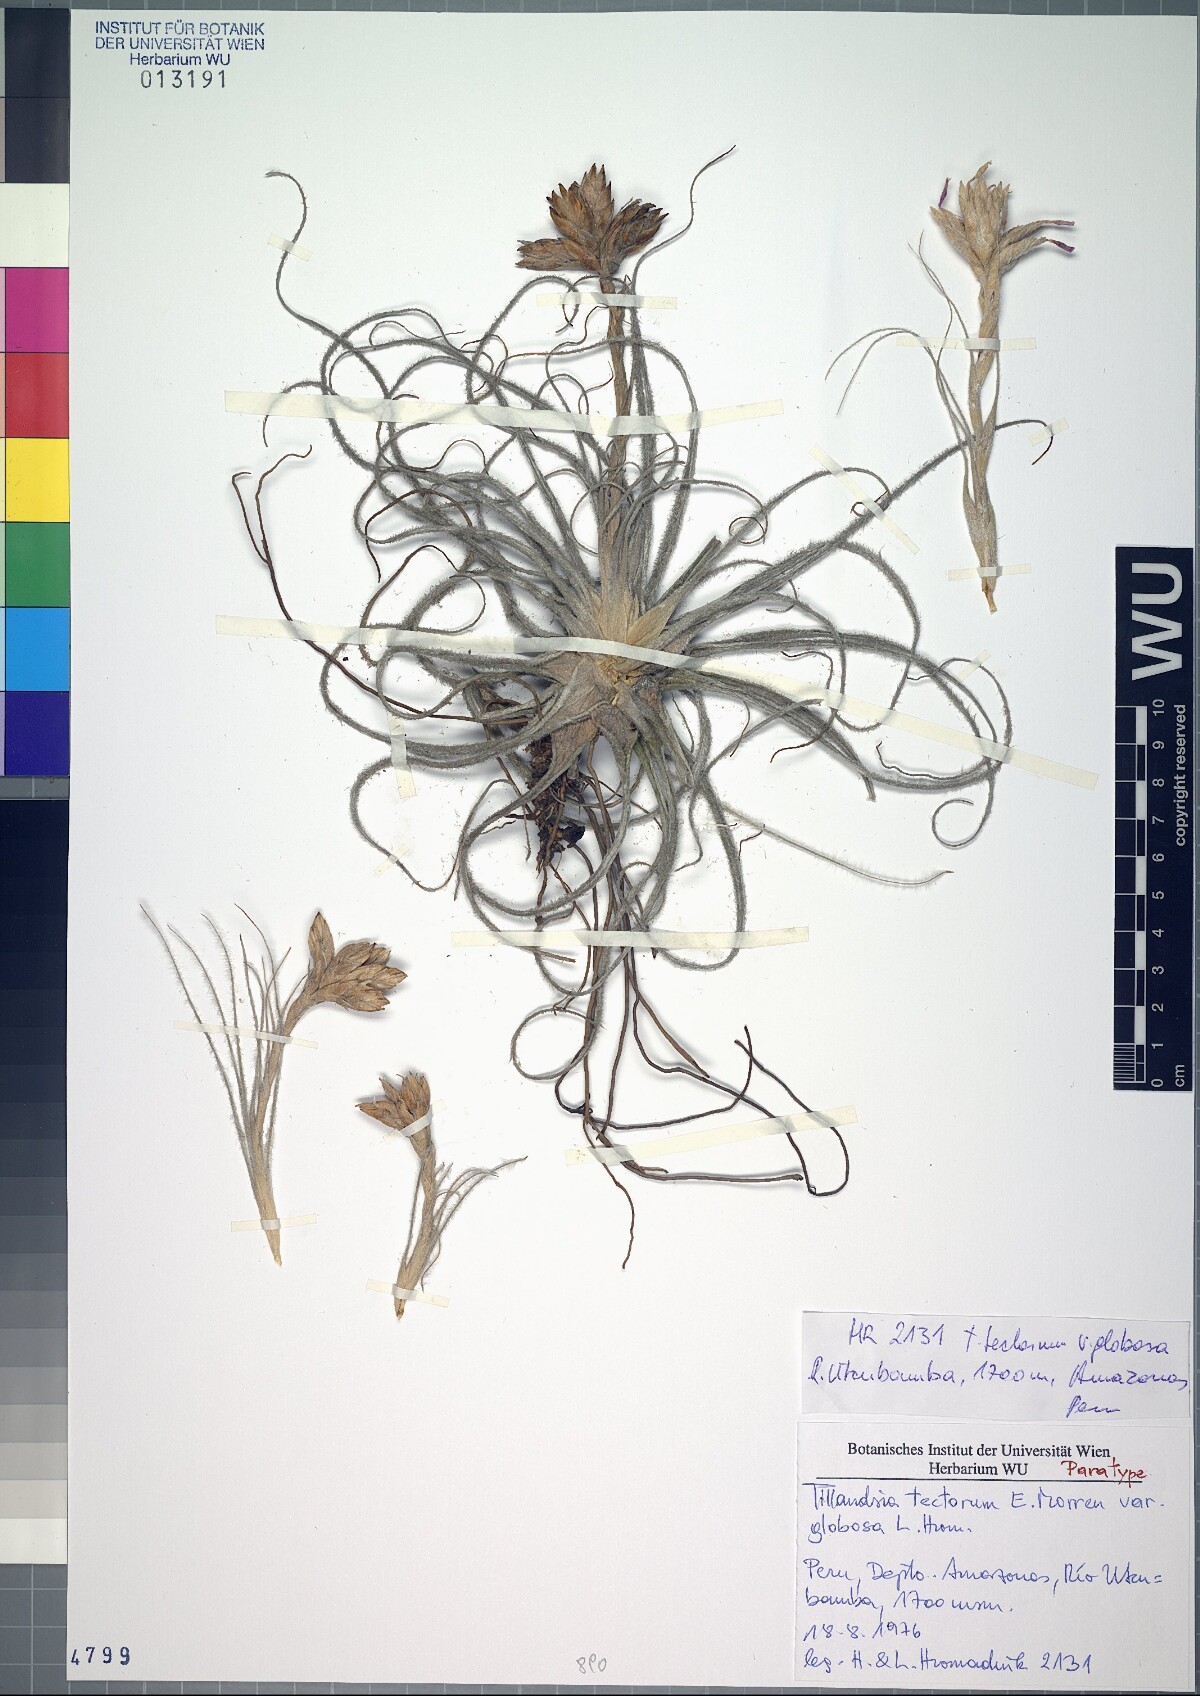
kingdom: Plantae
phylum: Tracheophyta
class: Liliopsida
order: Poales
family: Bromeliaceae
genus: Tillandsia
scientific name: Tillandsia tectorum
